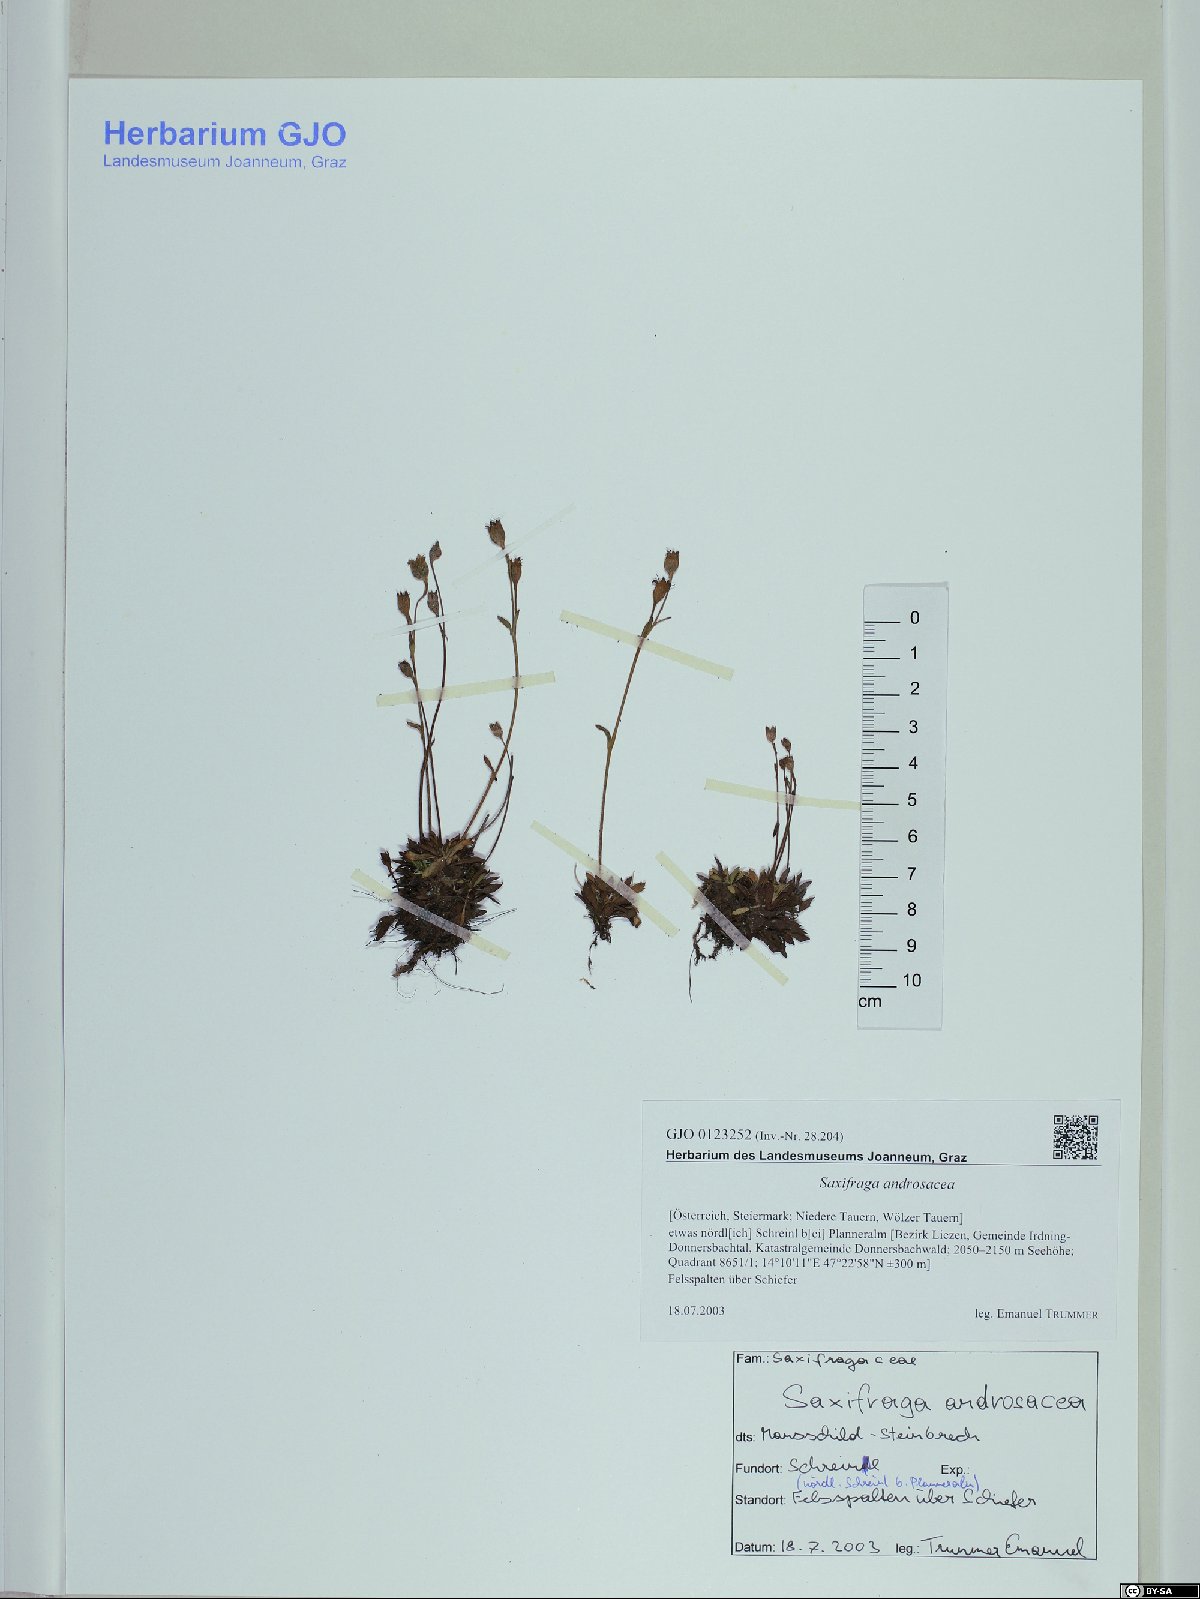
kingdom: Plantae
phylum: Tracheophyta
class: Magnoliopsida
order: Saxifragales
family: Saxifragaceae
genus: Saxifraga
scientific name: Saxifraga androsacea
